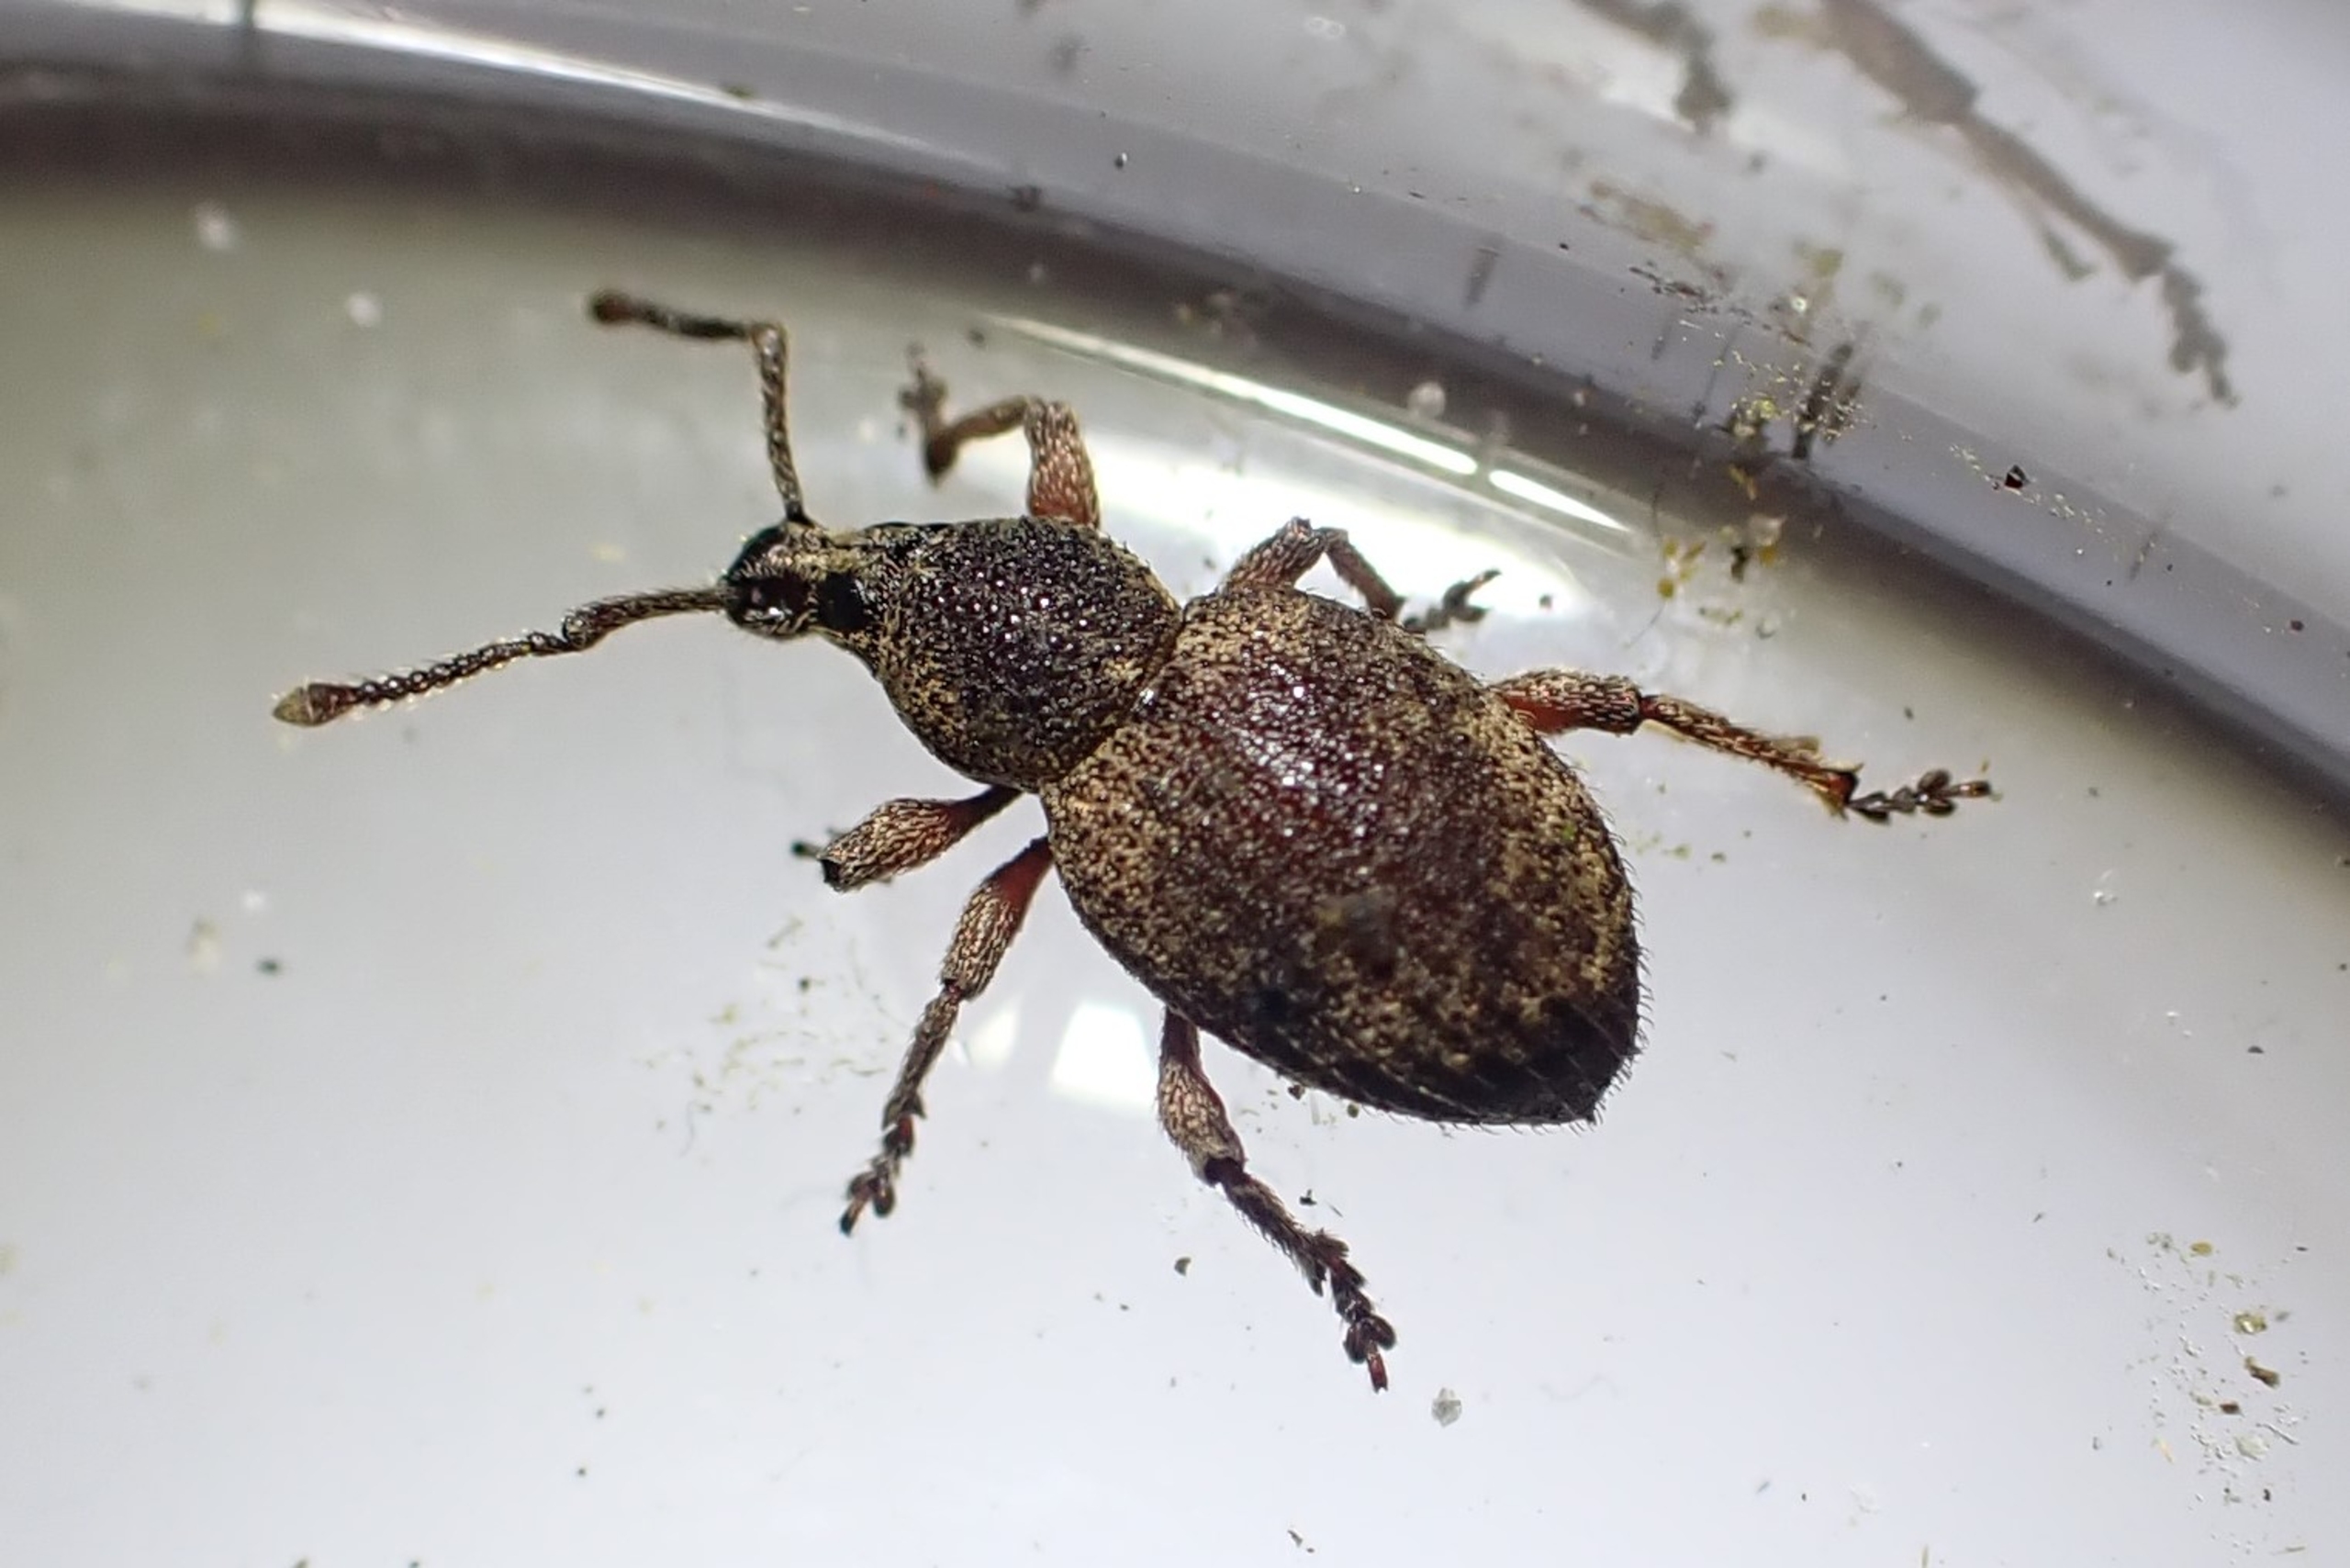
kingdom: Animalia
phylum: Arthropoda
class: Insecta
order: Coleoptera
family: Curculionidae
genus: Otiorhynchus
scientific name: Otiorhynchus singularis
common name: Barkøresnudebille
